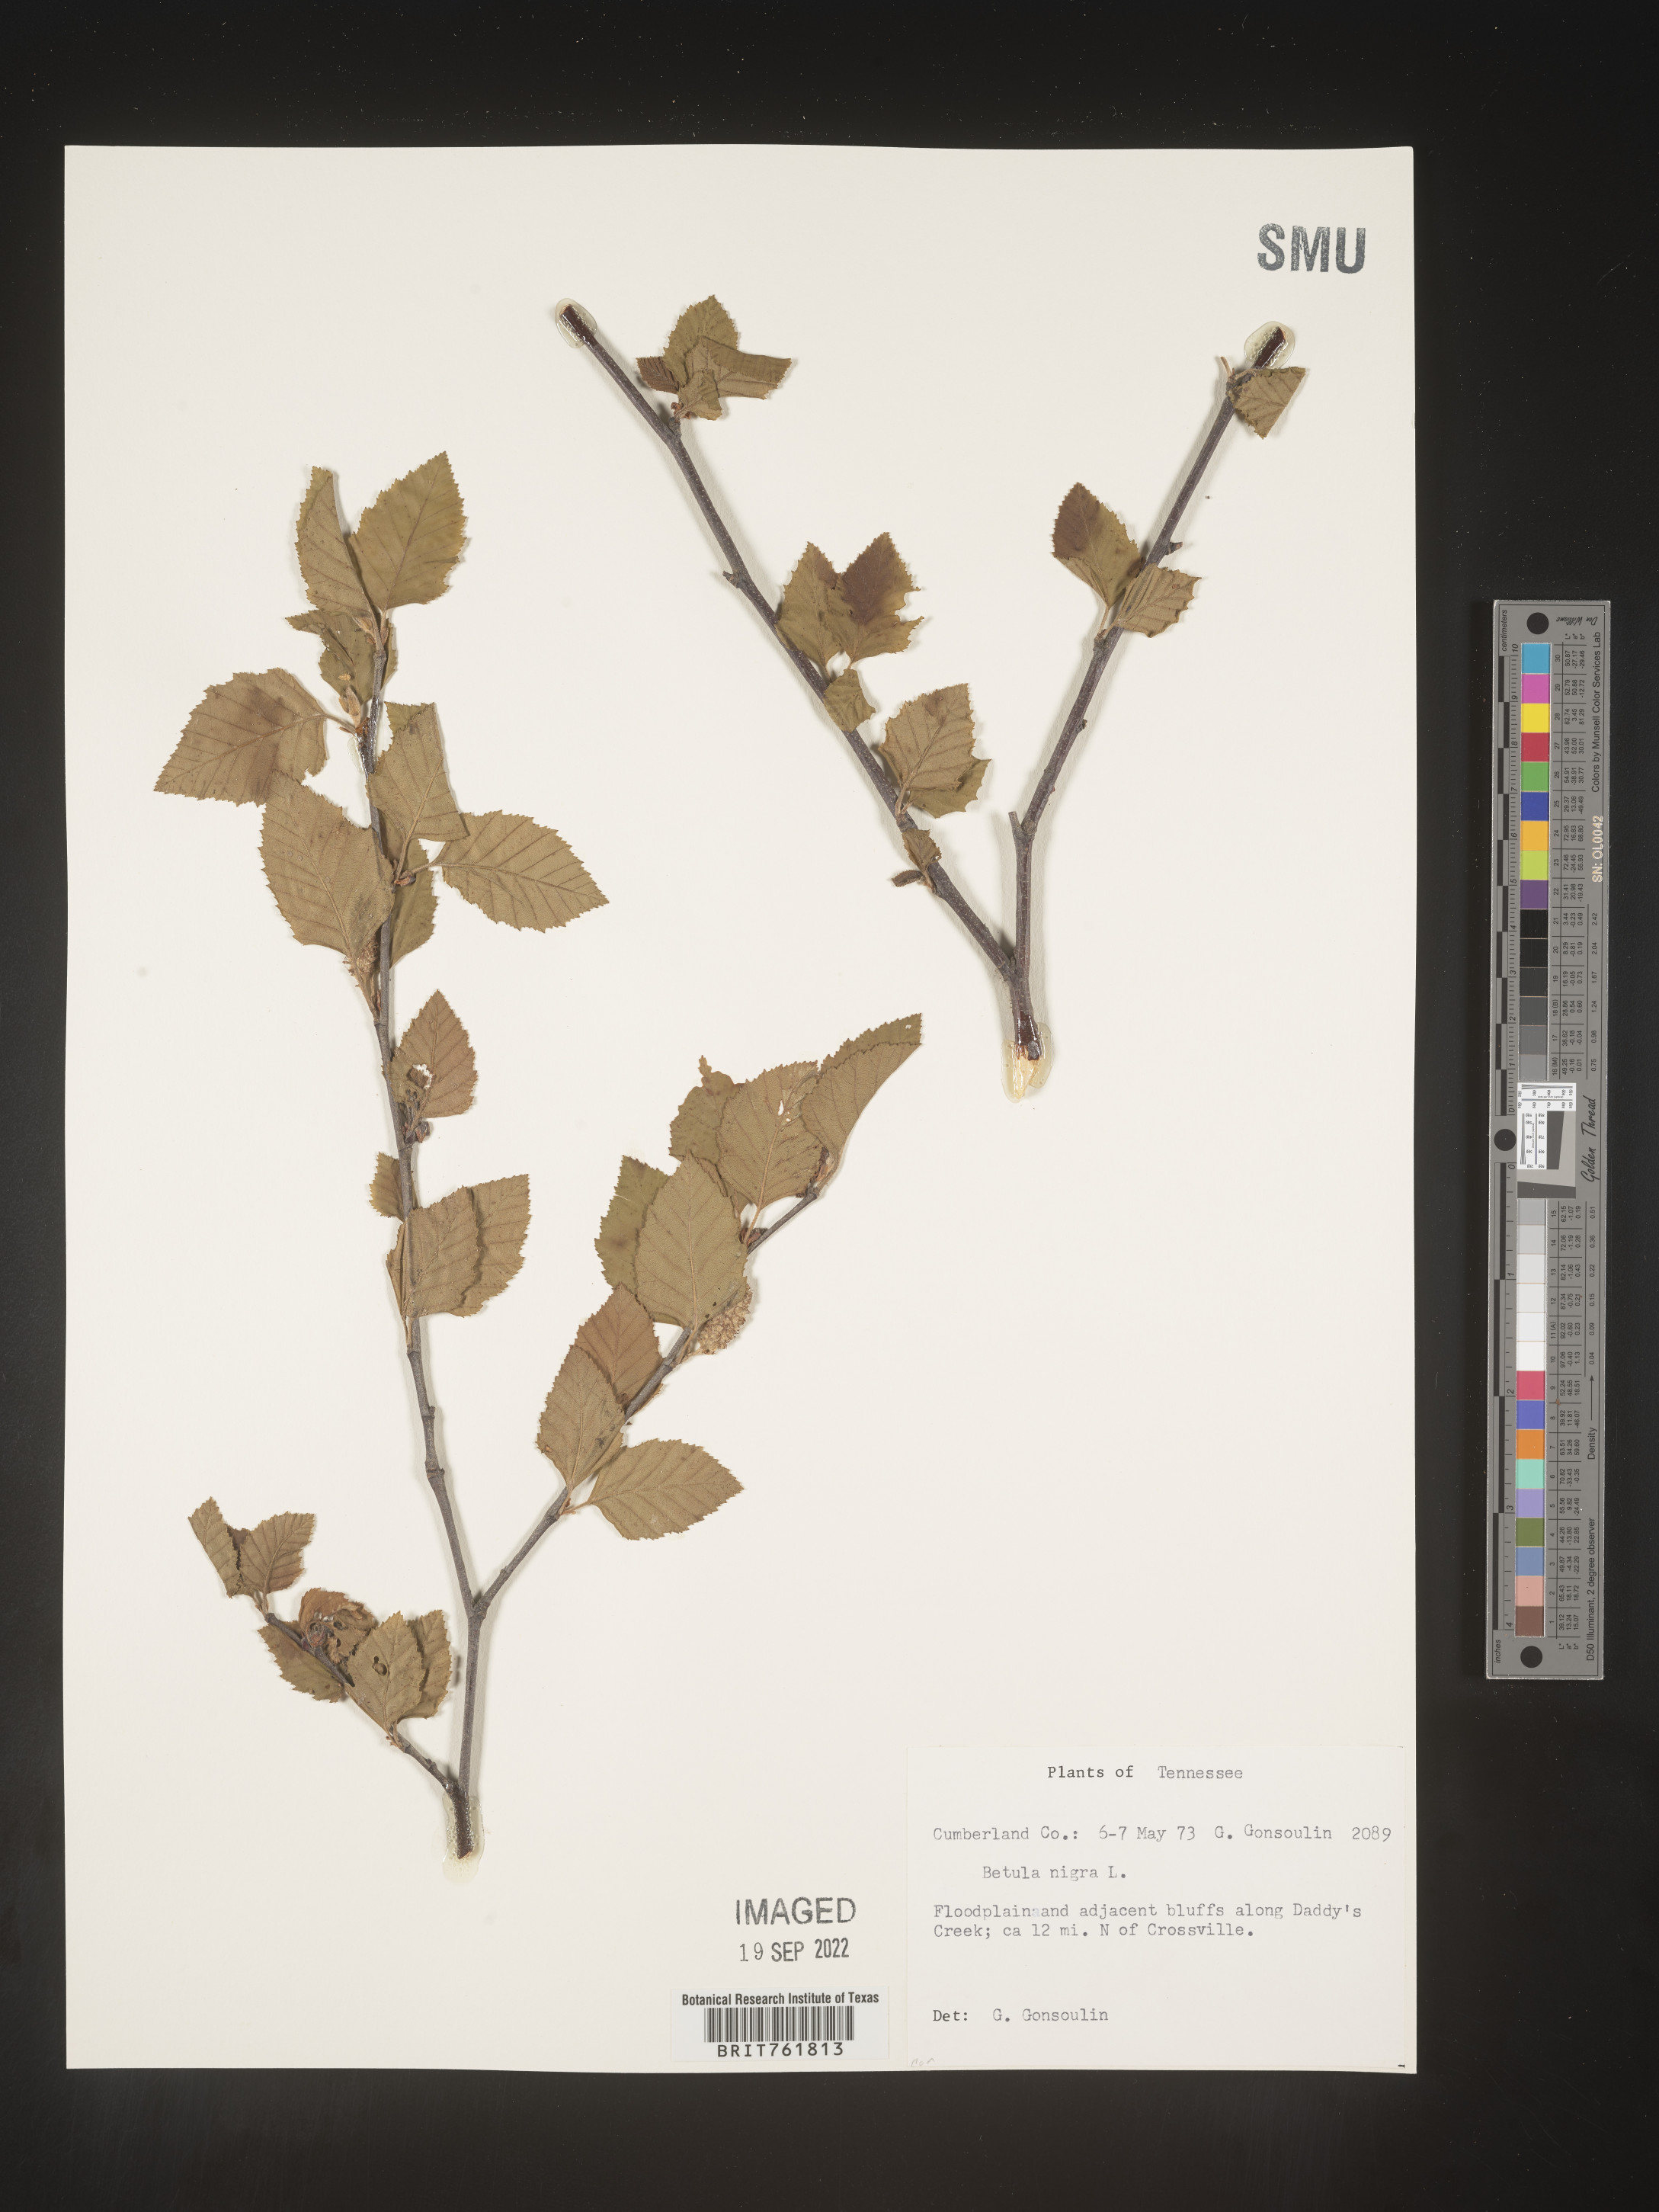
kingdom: Plantae
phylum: Tracheophyta
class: Magnoliopsida
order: Fagales
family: Betulaceae
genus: Betula
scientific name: Betula nigra
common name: Black birch
